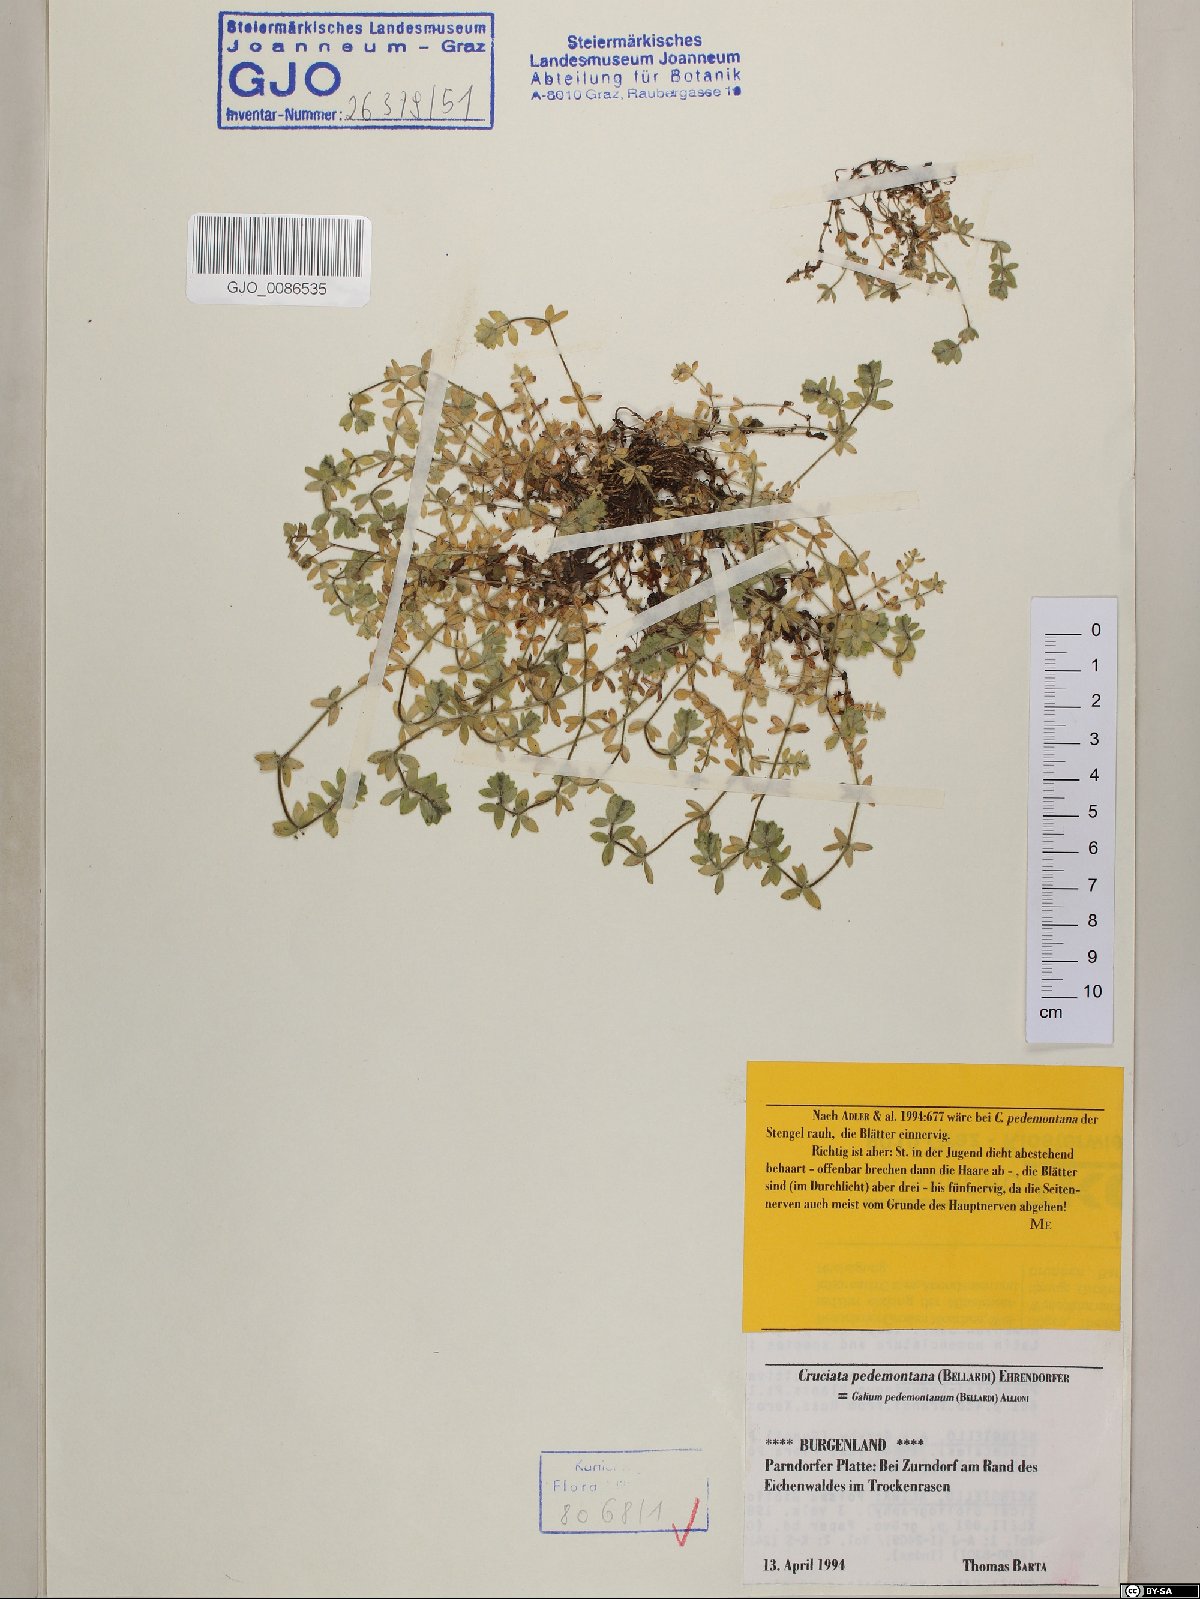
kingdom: Plantae
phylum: Tracheophyta
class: Magnoliopsida
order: Gentianales
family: Rubiaceae
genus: Cruciata
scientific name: Cruciata pedemontana
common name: Piedmont bedstraw
